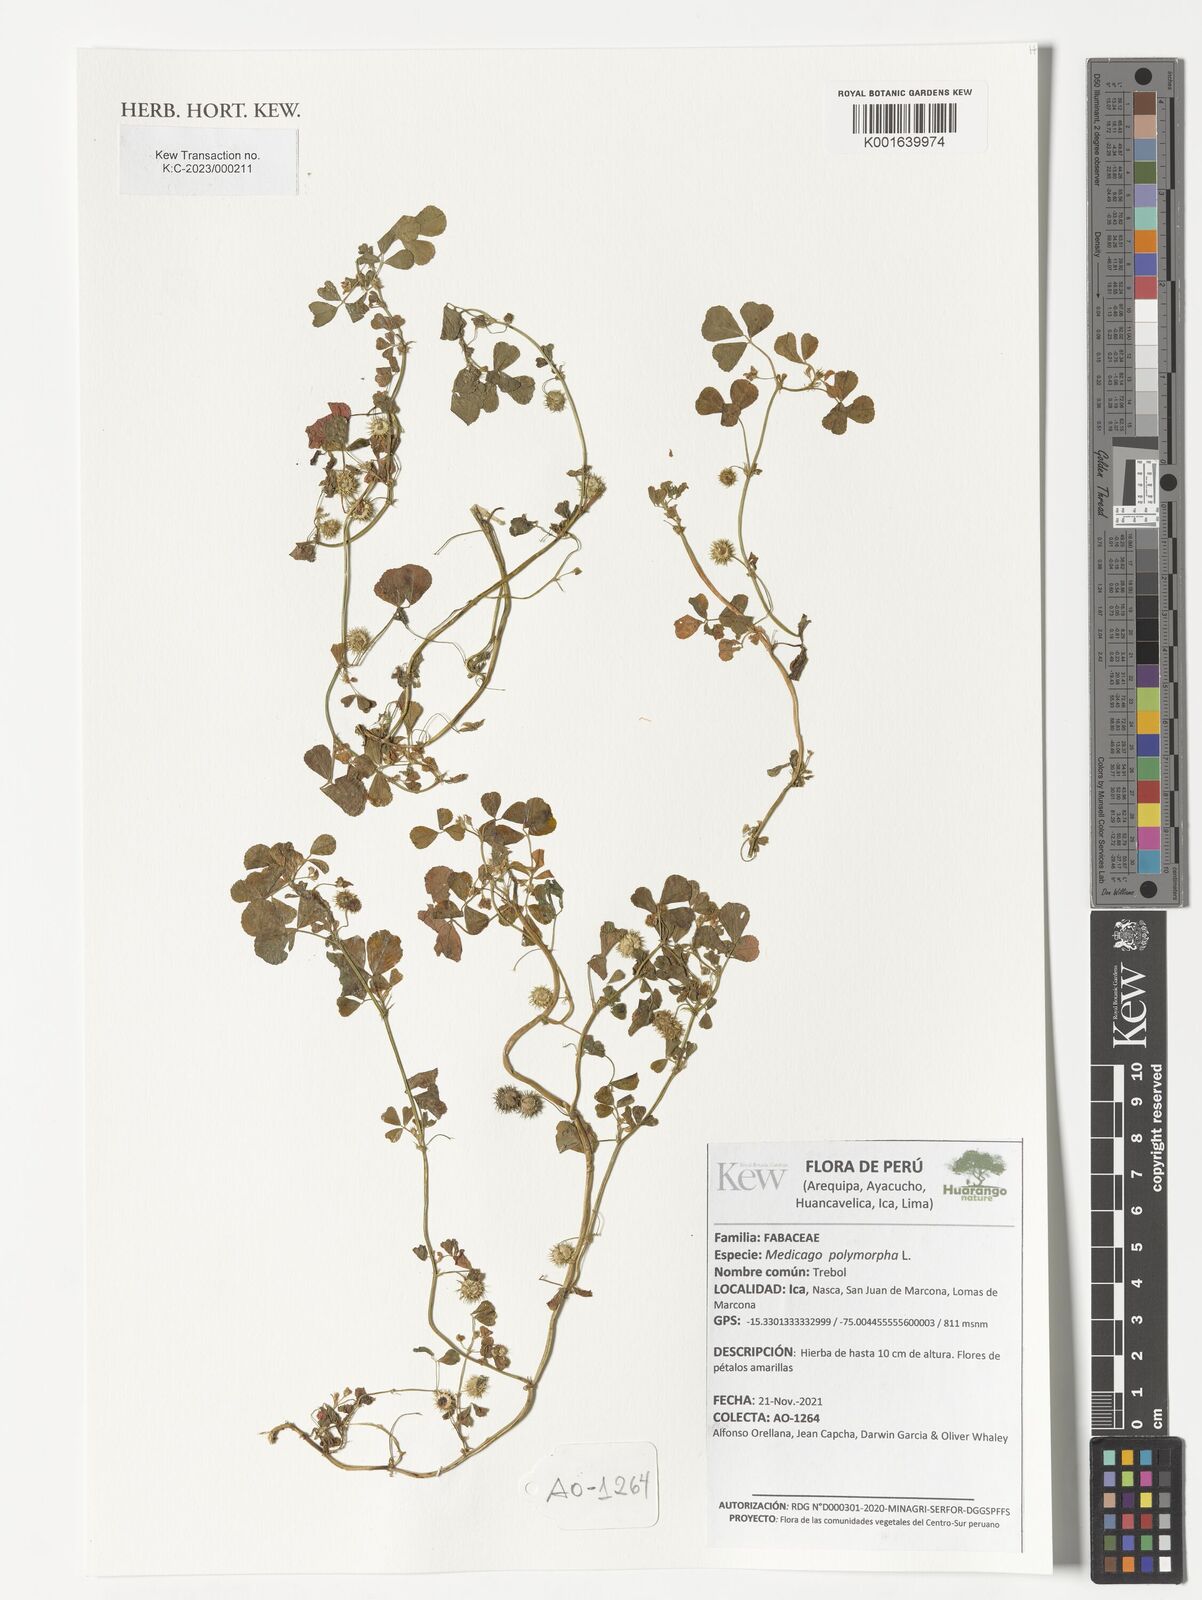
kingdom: Plantae
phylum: Tracheophyta
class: Magnoliopsida
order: Fabales
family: Fabaceae
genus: Medicago
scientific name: Medicago polymorpha
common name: Burclover
